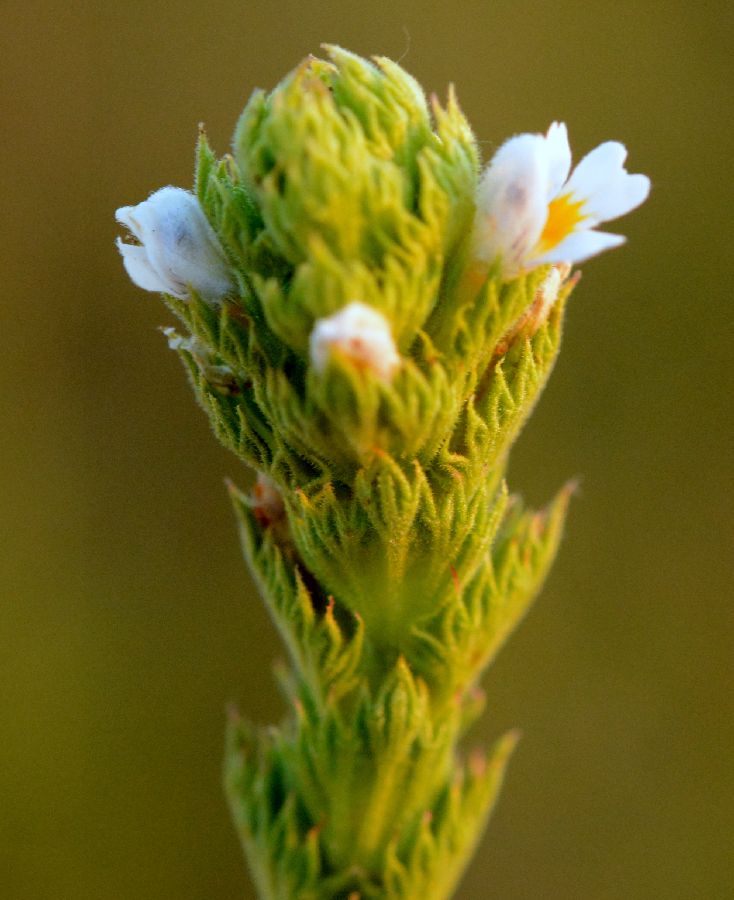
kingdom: Plantae
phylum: Tracheophyta
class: Magnoliopsida
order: Lamiales
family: Orobanchaceae
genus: Euphrasia
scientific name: Euphrasia pectinata
